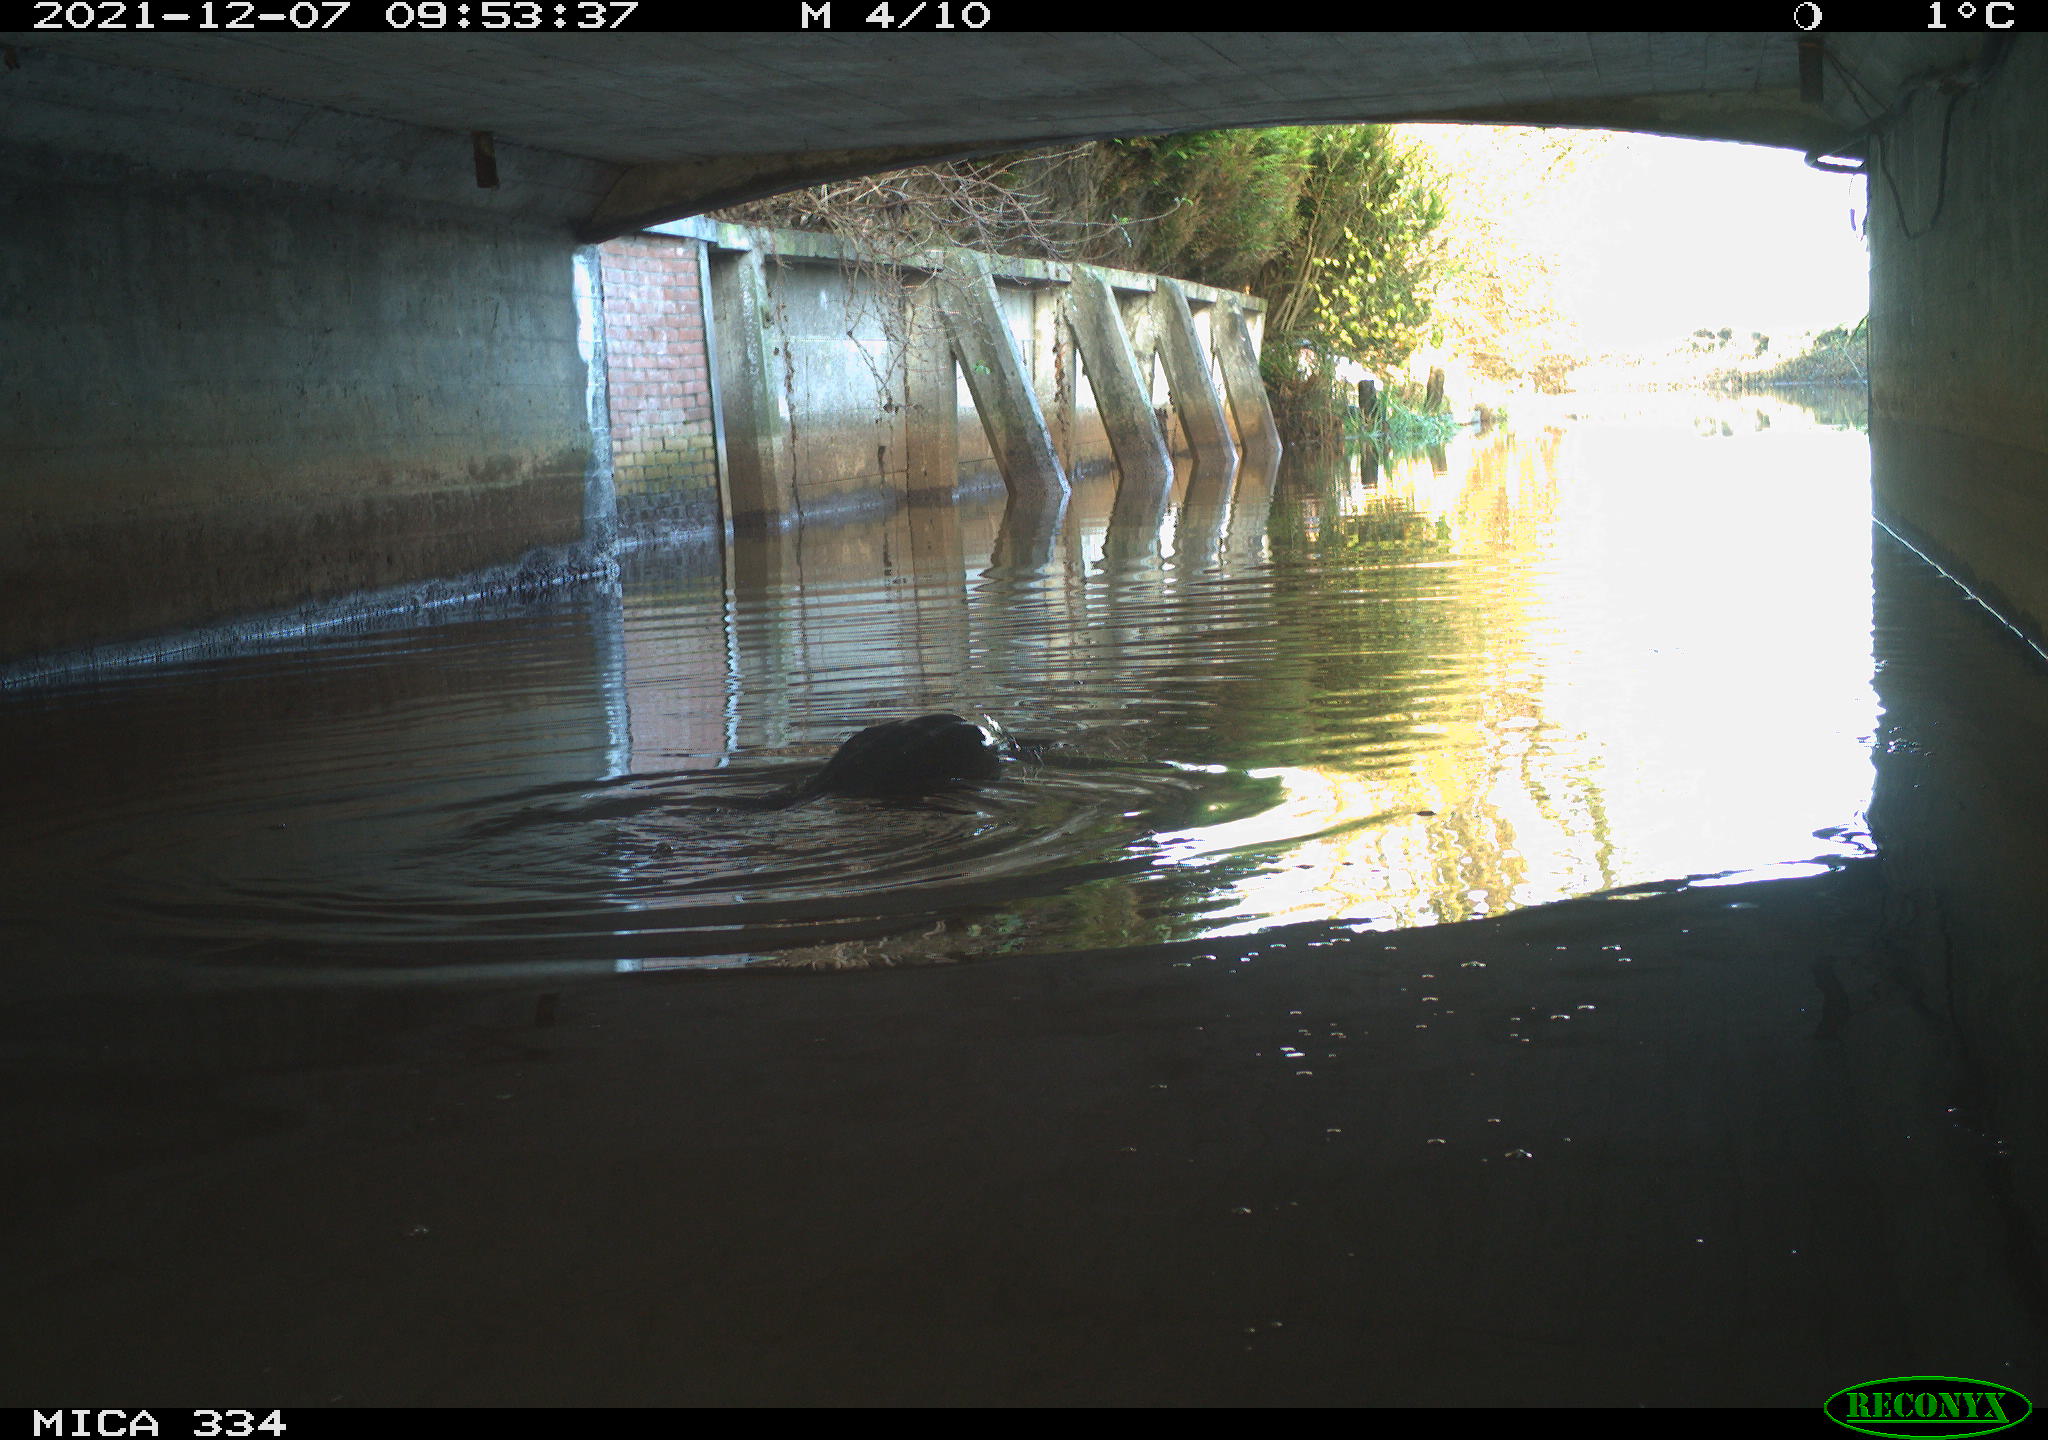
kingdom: Animalia
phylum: Chordata
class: Aves
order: Suliformes
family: Phalacrocoracidae
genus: Phalacrocorax
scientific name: Phalacrocorax carbo
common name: Great cormorant
